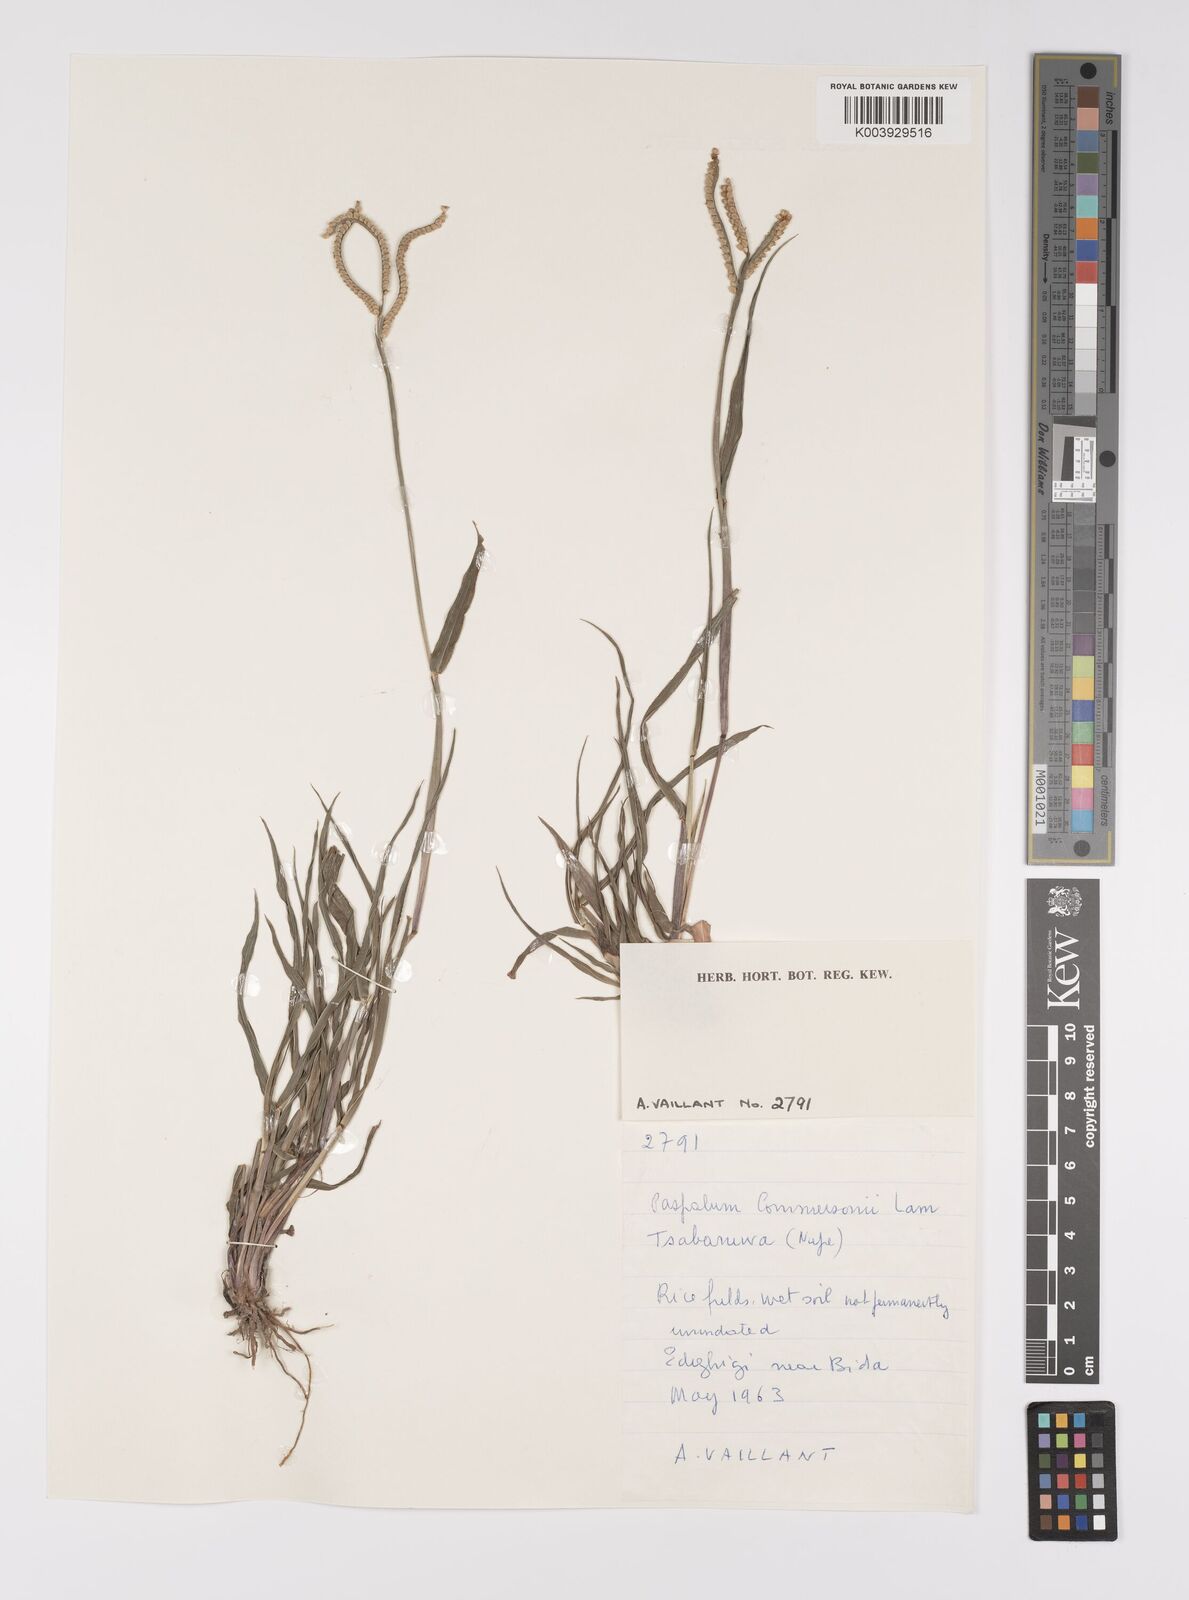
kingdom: Plantae
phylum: Tracheophyta
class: Liliopsida
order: Poales
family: Poaceae
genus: Paspalum
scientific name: Paspalum scrobiculatum
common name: Kodo millet
